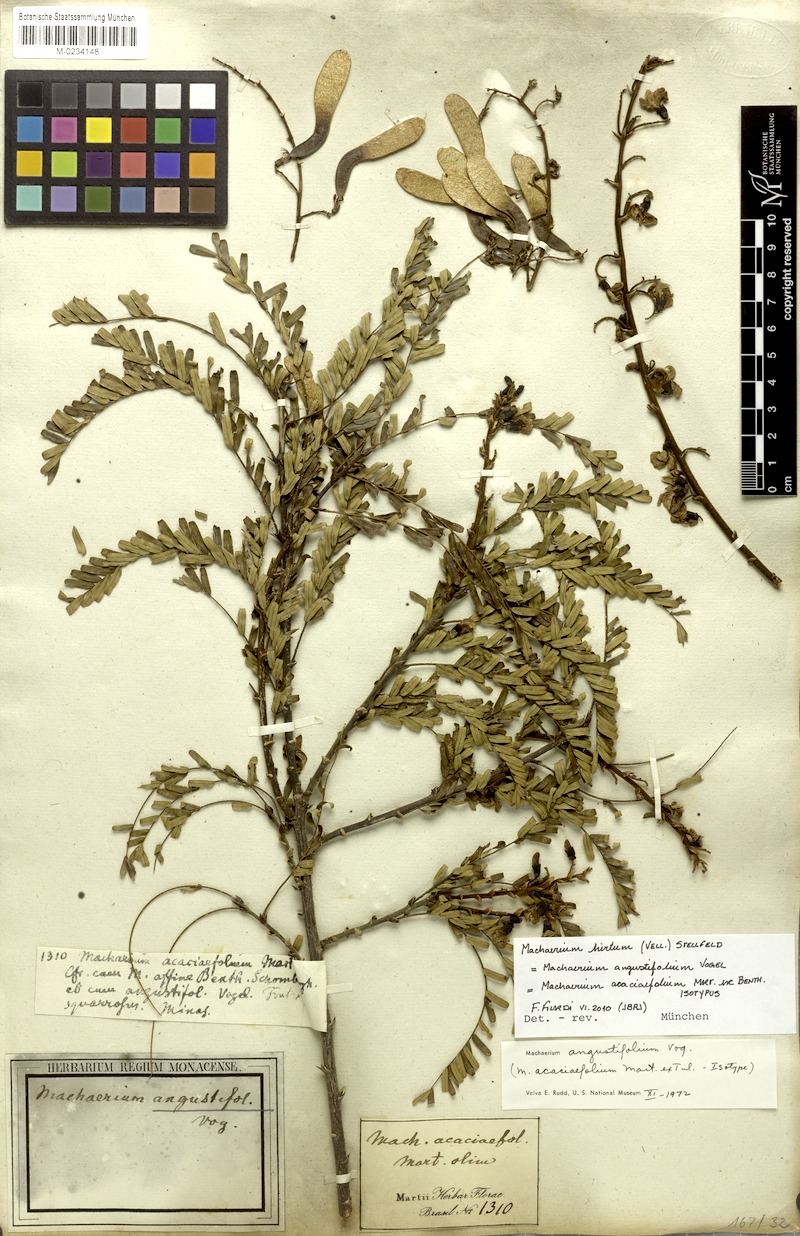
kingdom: Plantae
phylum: Tracheophyta
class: Magnoliopsida
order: Fabales
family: Fabaceae
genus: Machaerium
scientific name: Machaerium hirtum
